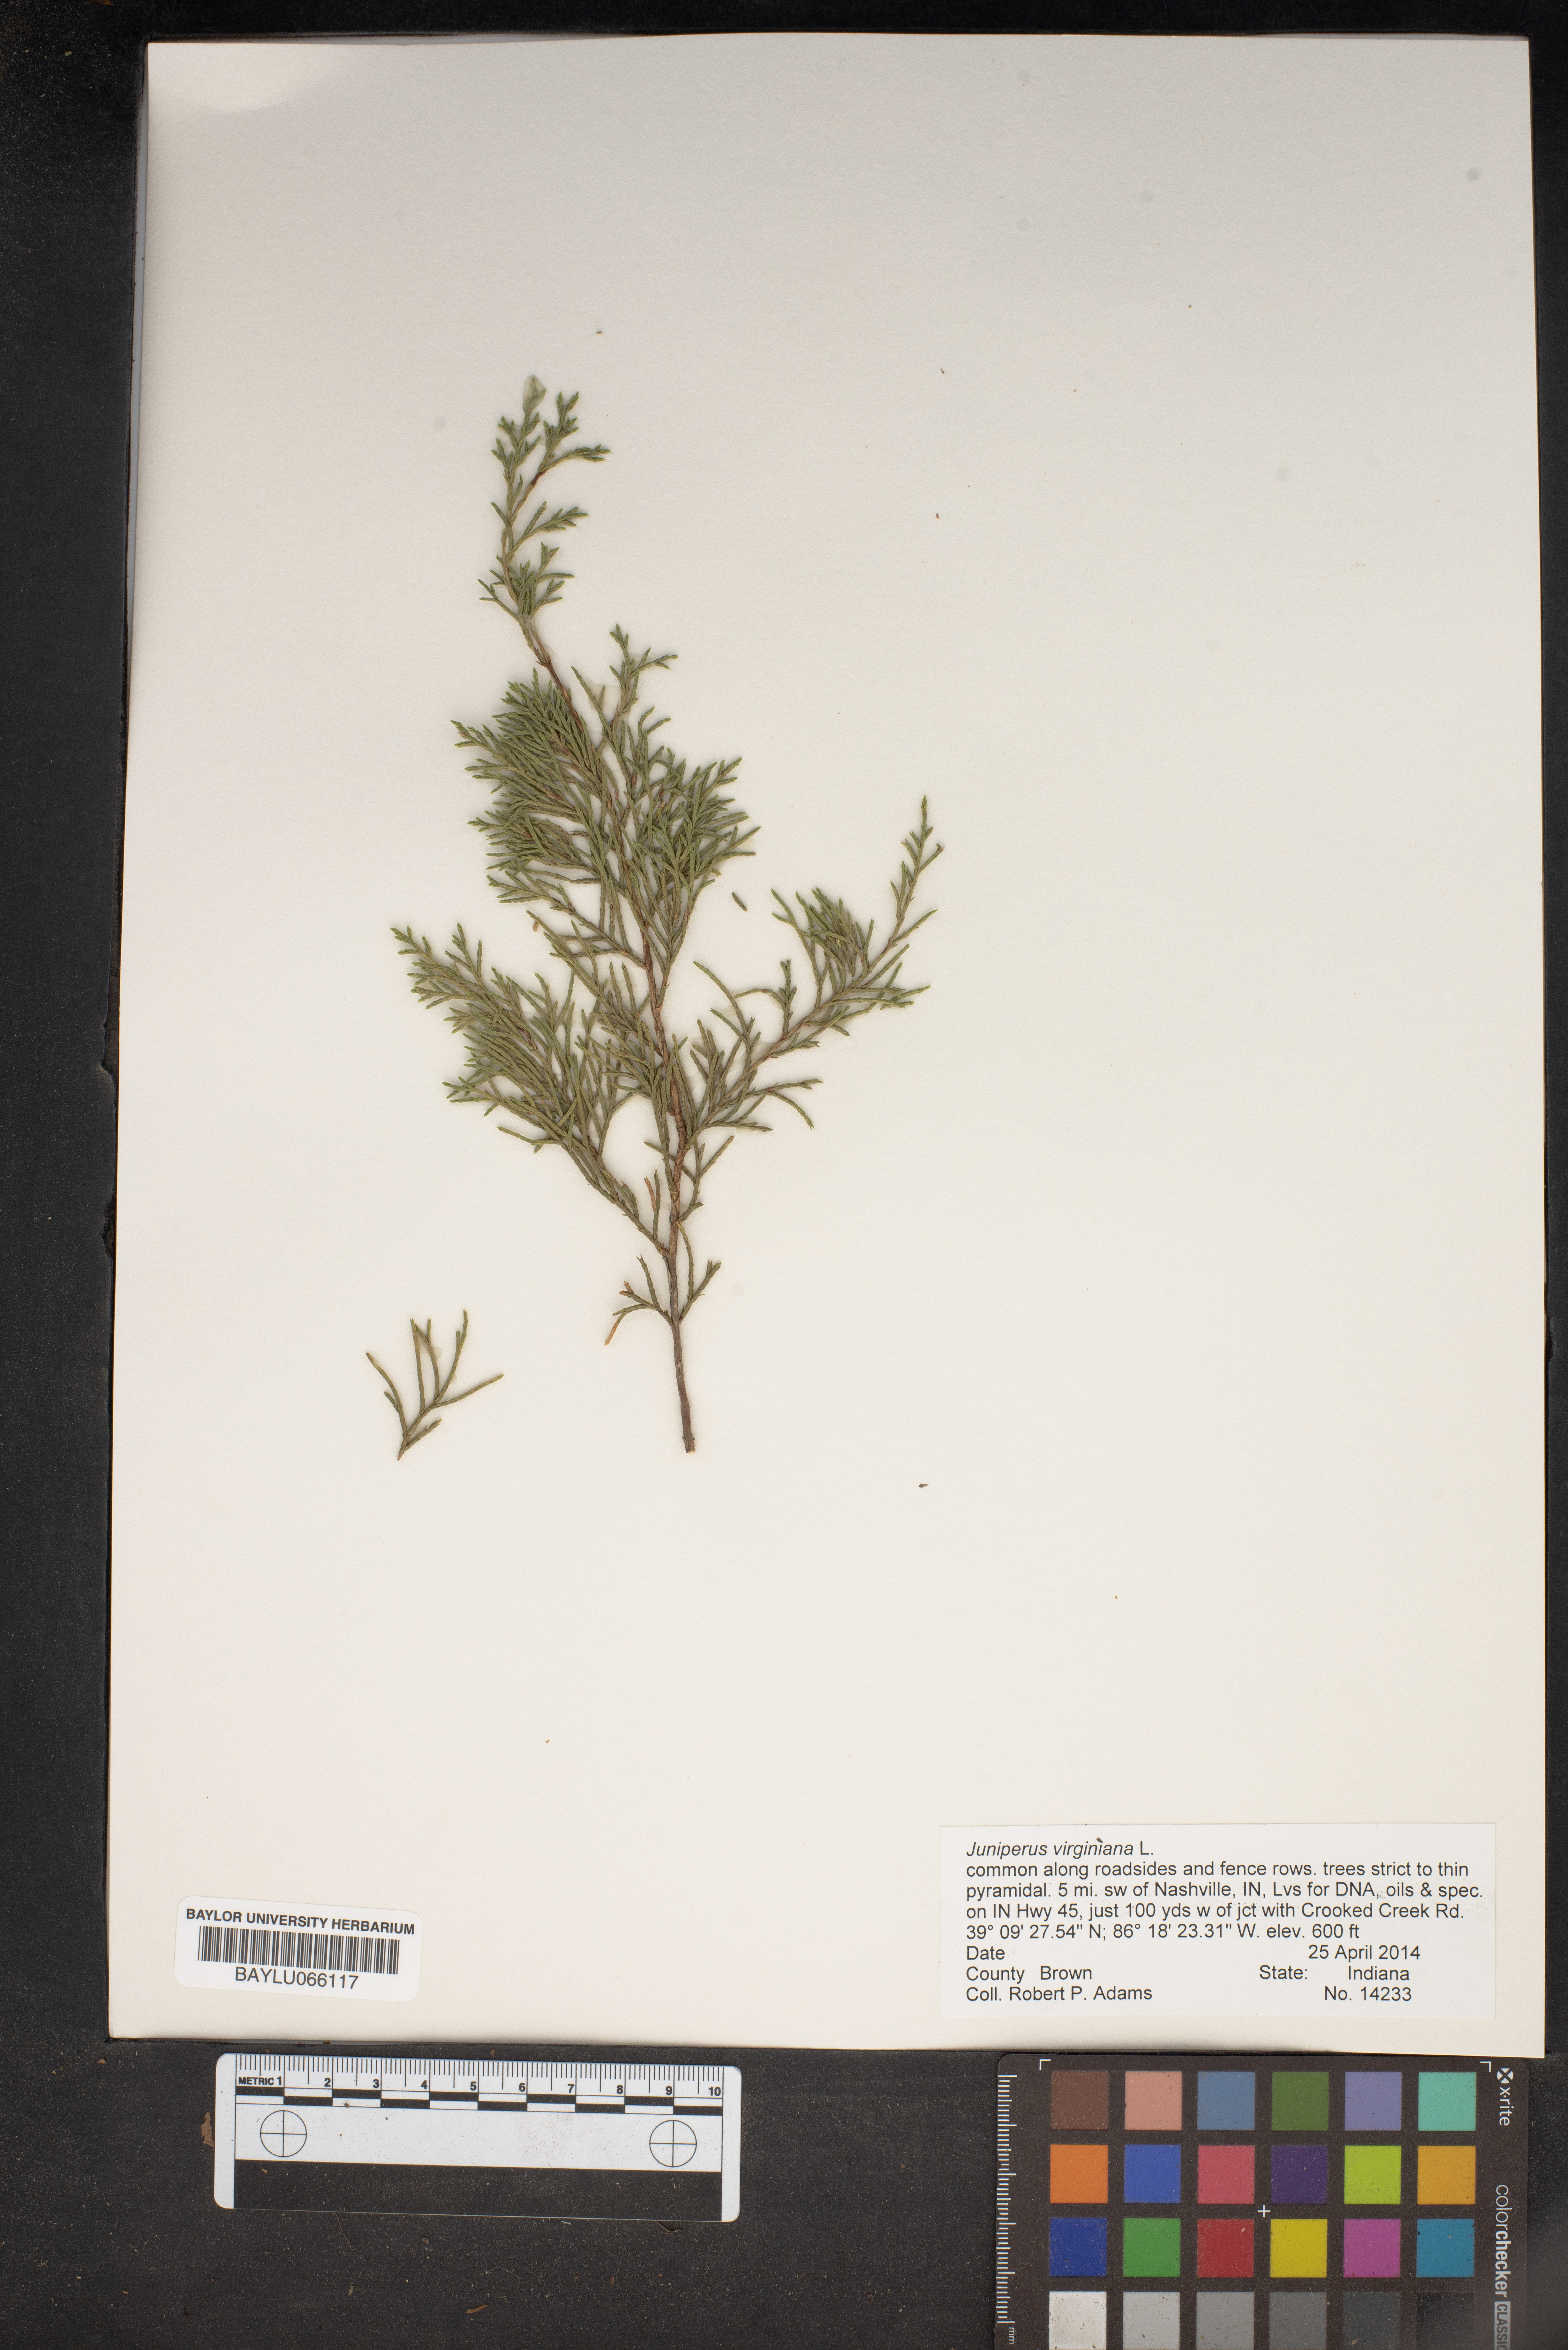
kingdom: Plantae
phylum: Tracheophyta
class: Pinopsida
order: Pinales
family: Cupressaceae
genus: Juniperus
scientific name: Juniperus virginiana
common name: Red juniper
